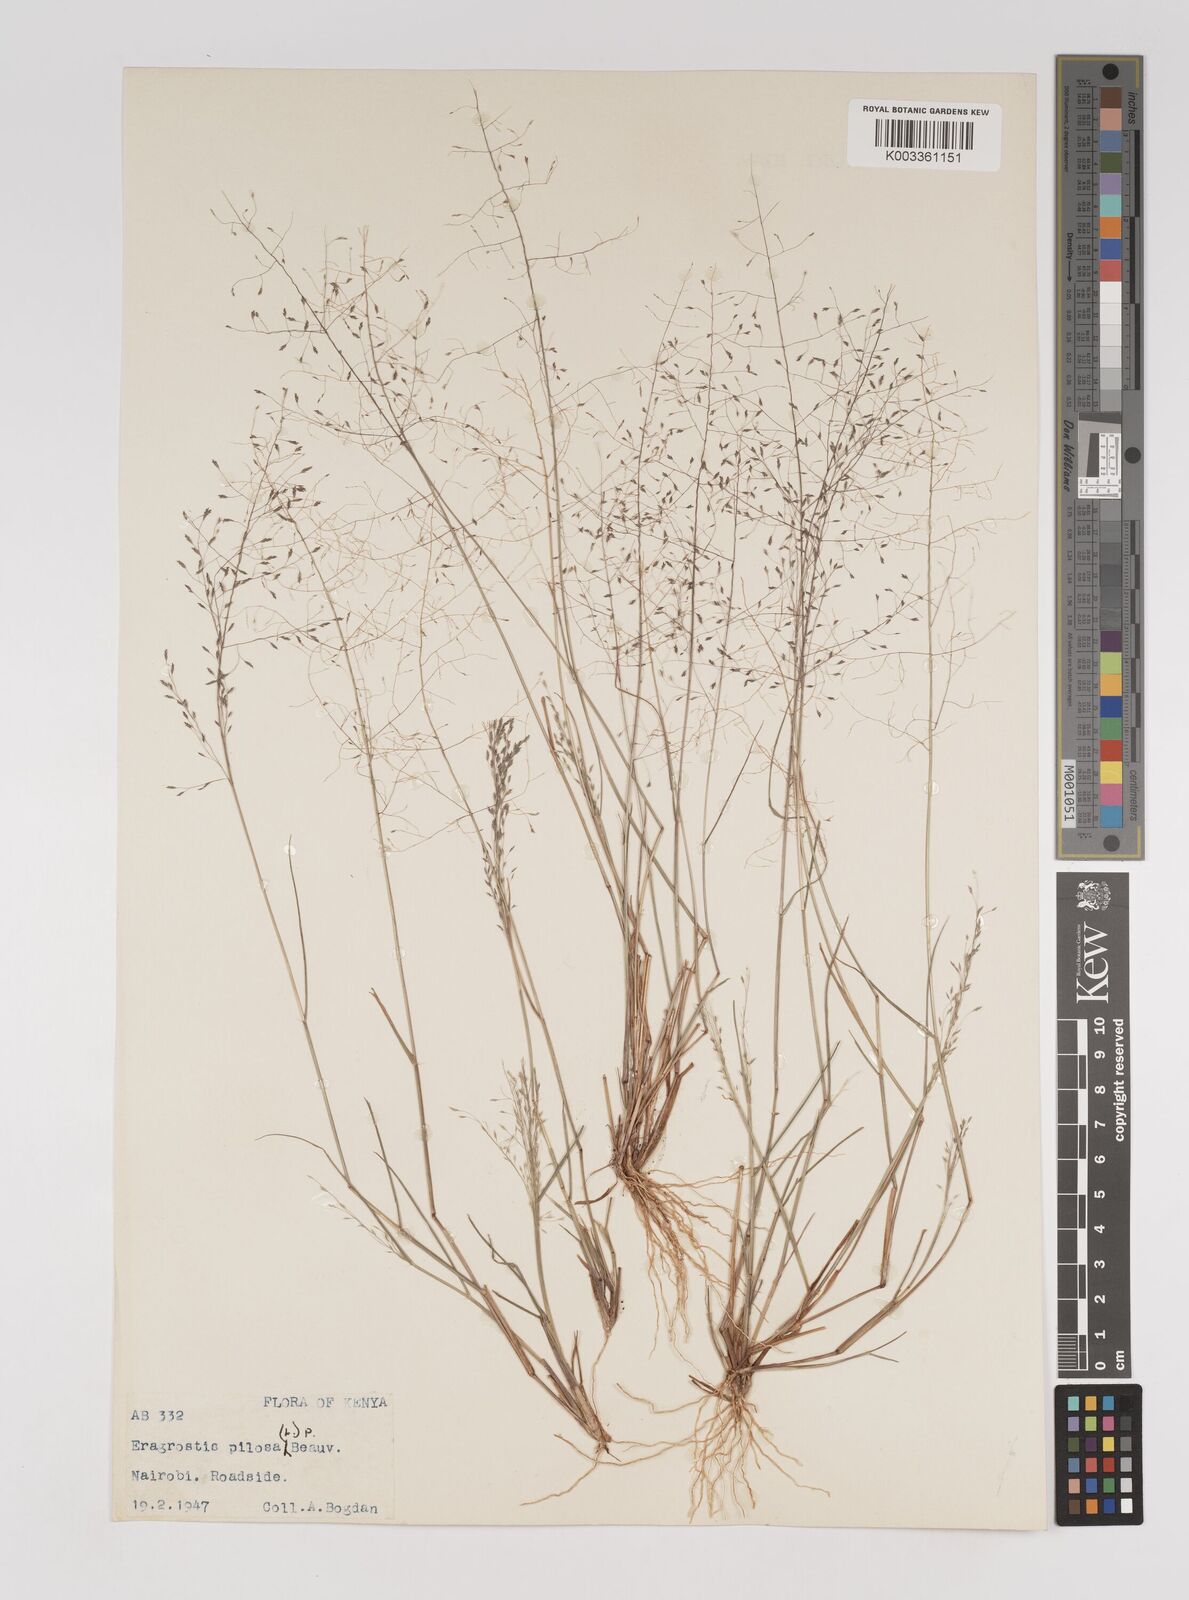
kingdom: Plantae
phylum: Tracheophyta
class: Liliopsida
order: Poales
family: Poaceae
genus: Eragrostis
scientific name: Eragrostis pilosa
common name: Indian lovegrass
